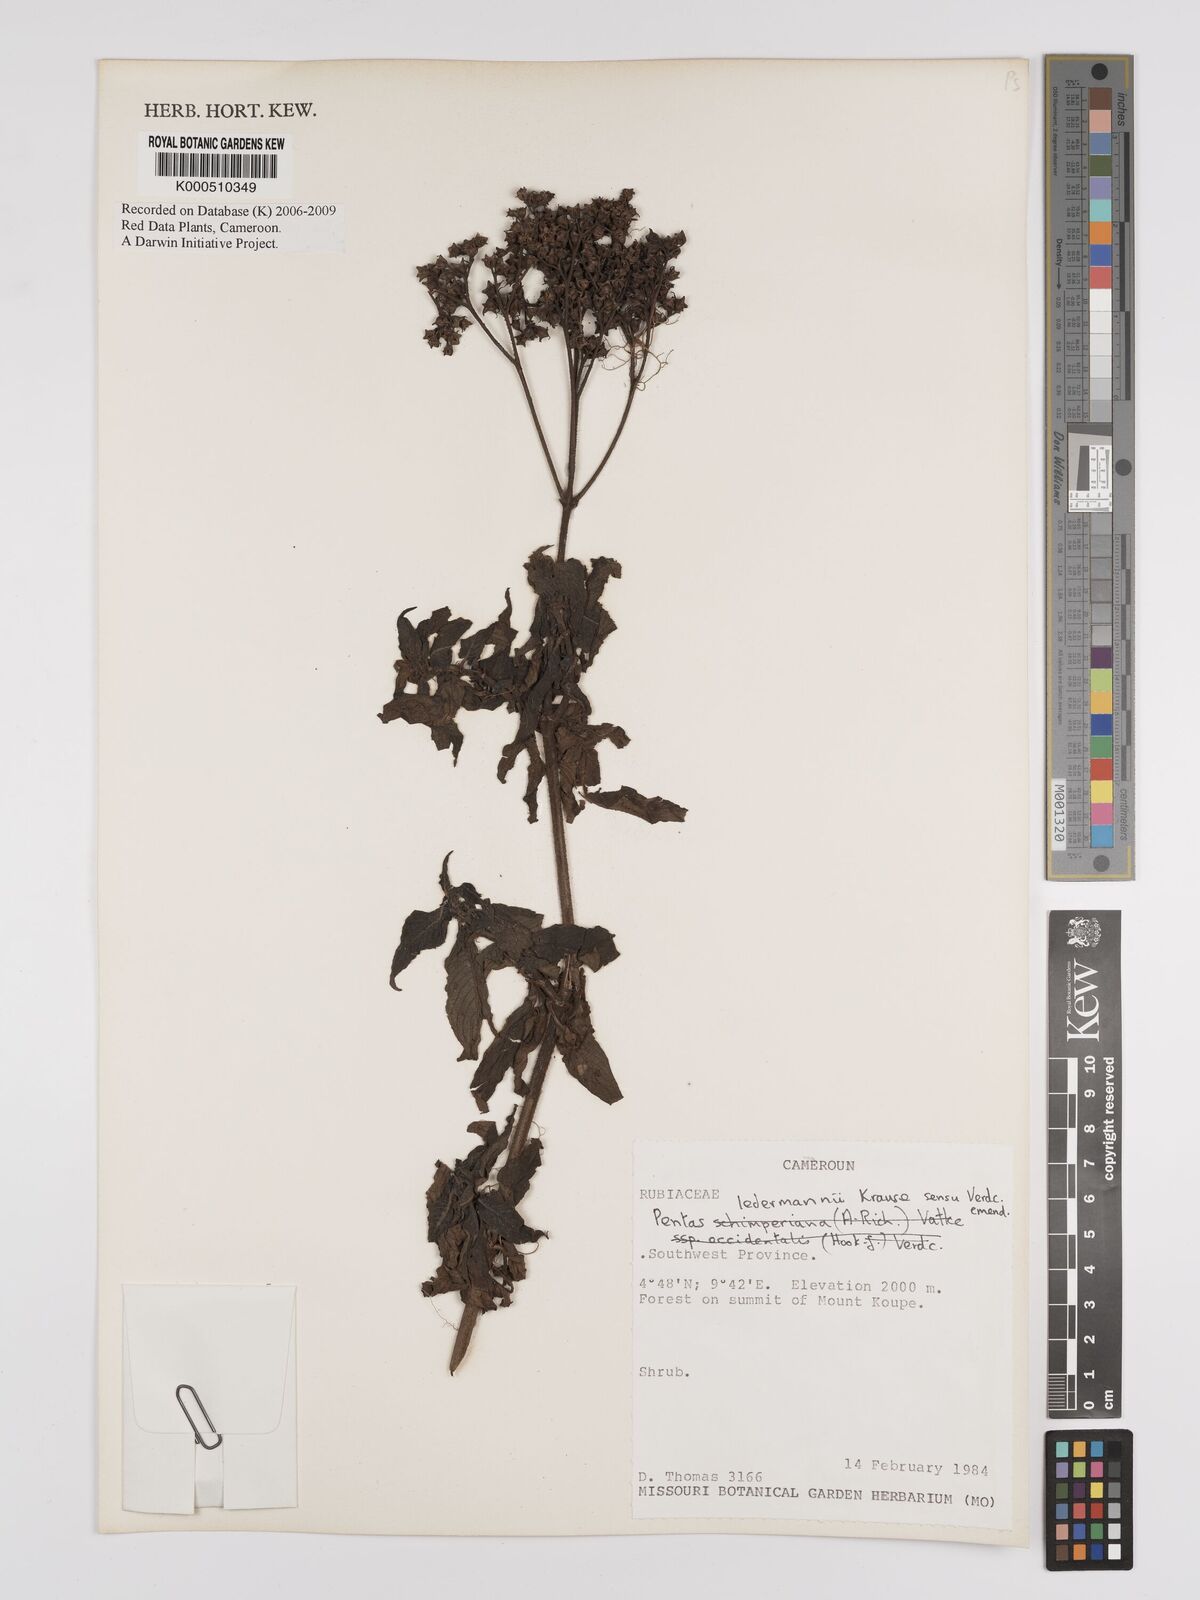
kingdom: Plantae
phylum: Tracheophyta
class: Magnoliopsida
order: Gentianales
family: Rubiaceae
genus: Phyllopentas
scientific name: Phyllopentas ledermannii
